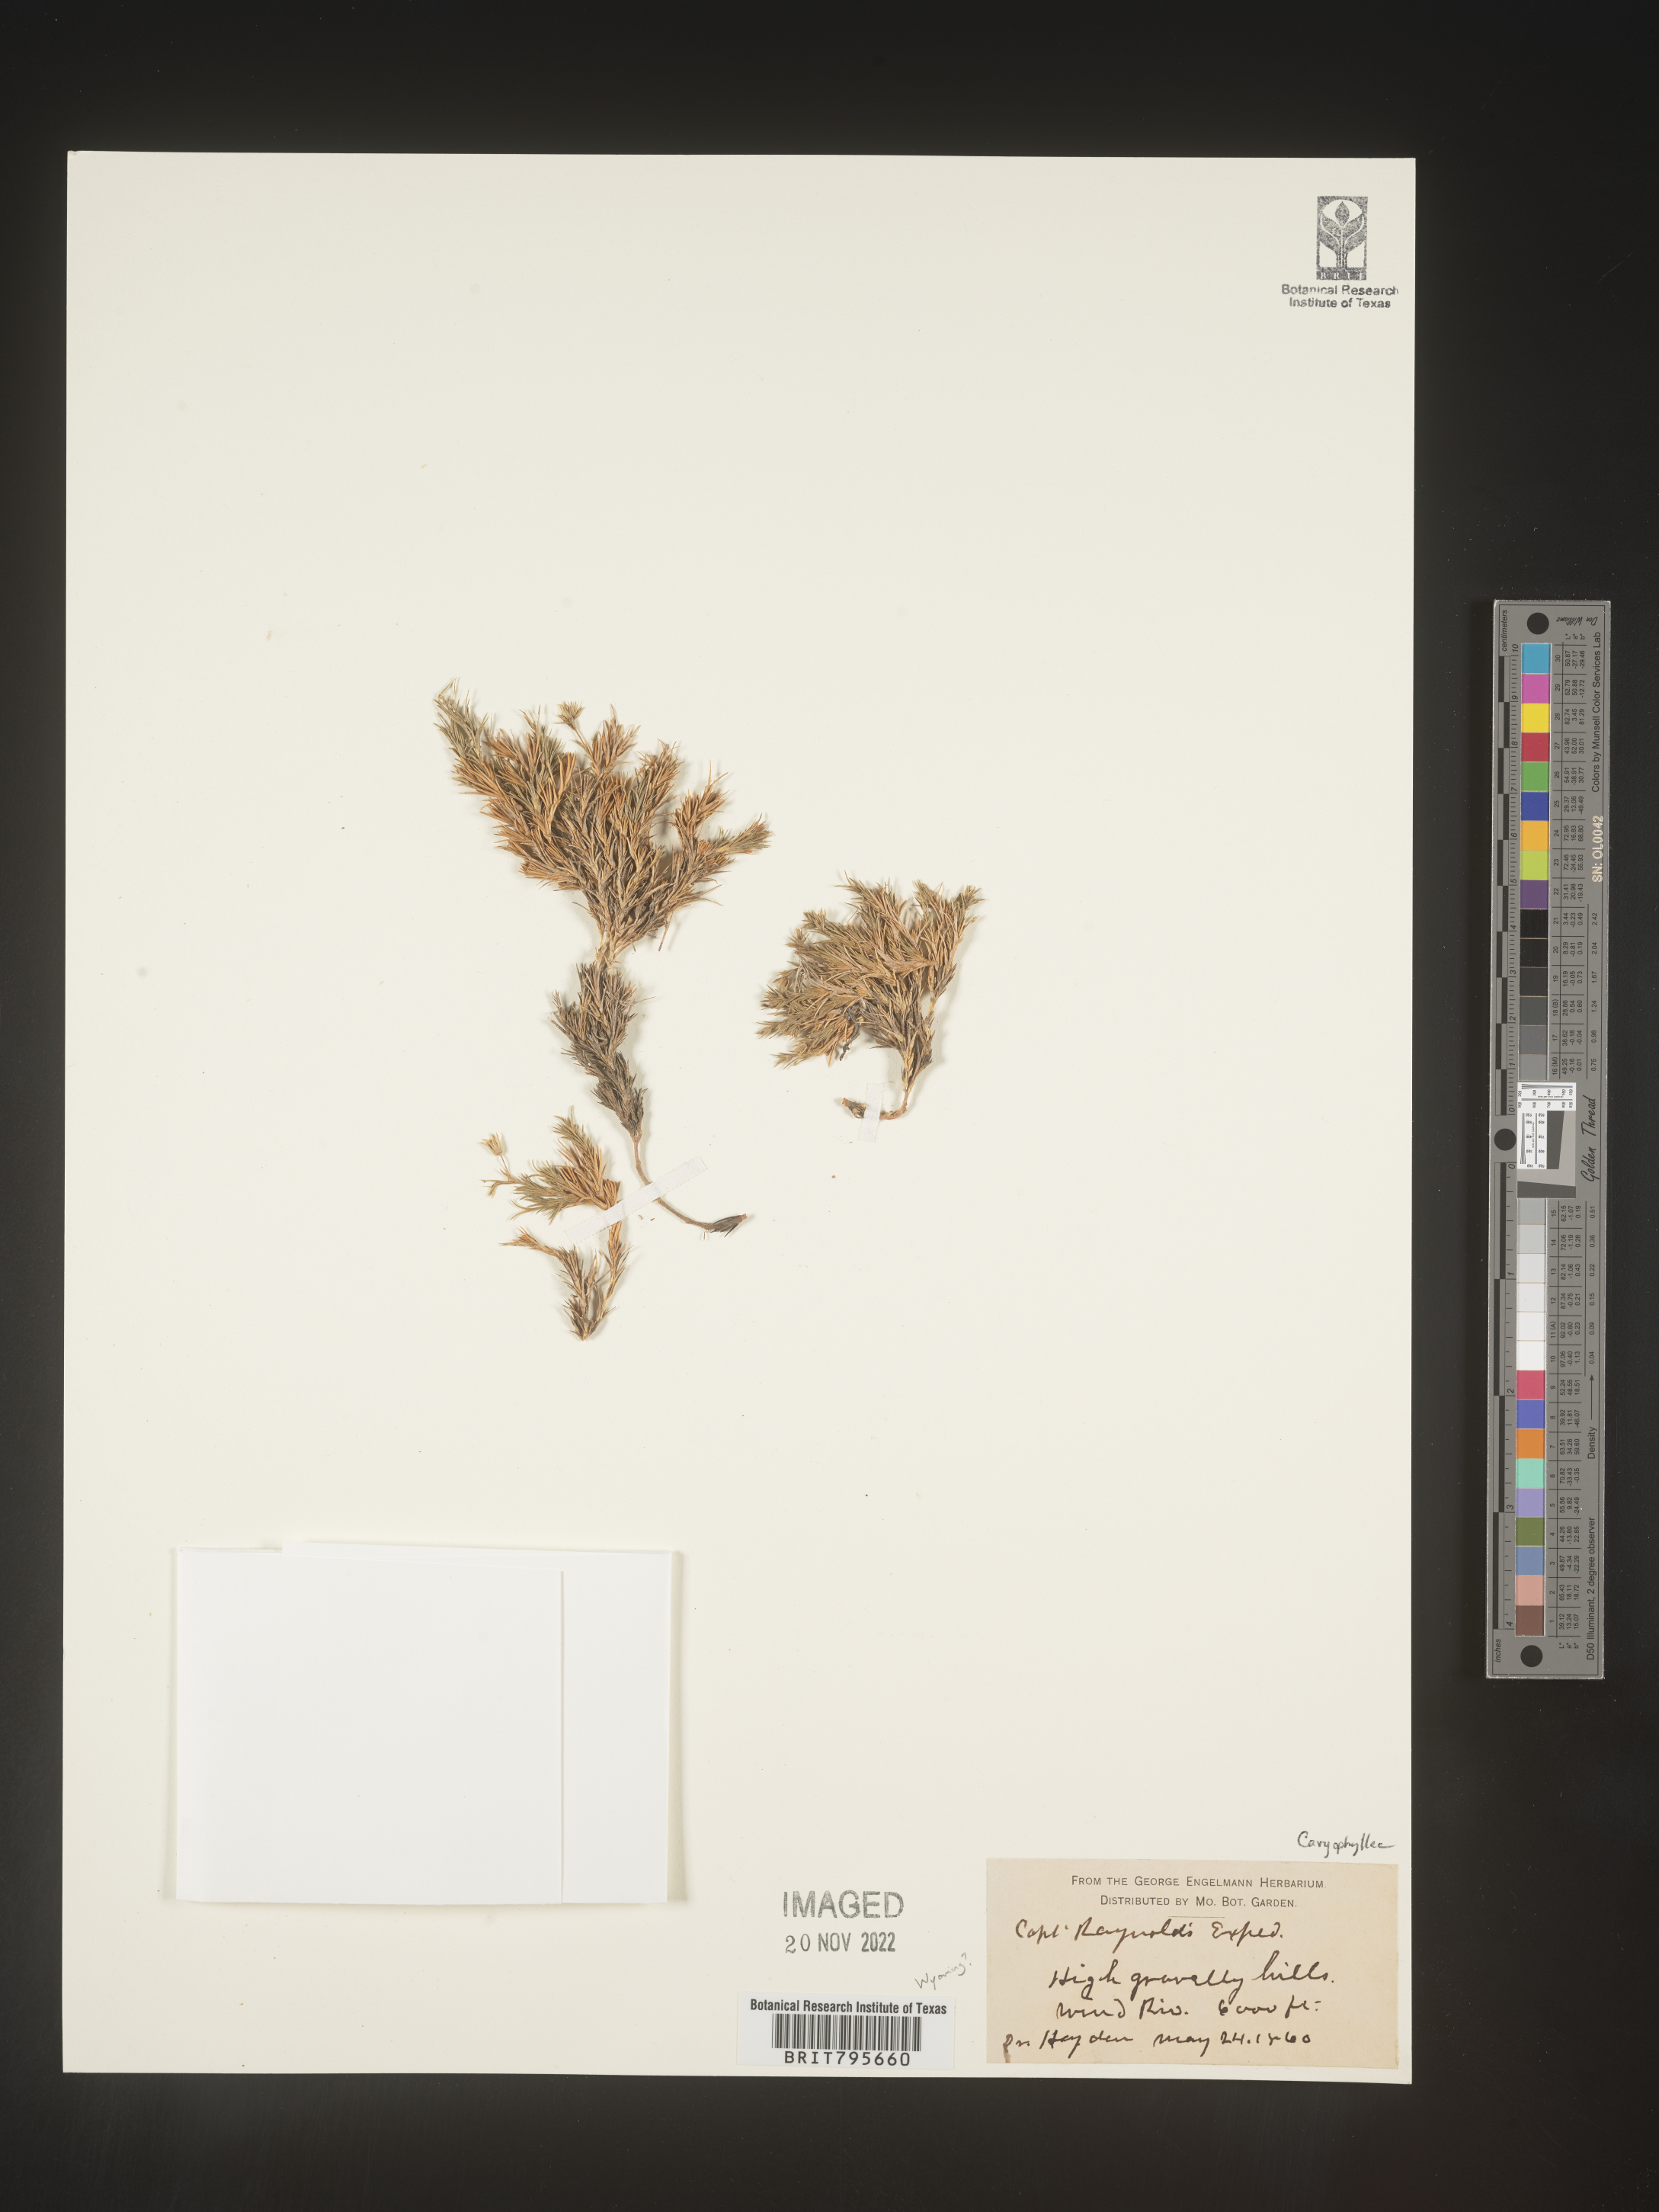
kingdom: Plantae
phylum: Tracheophyta
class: Magnoliopsida
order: Caryophyllales
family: Caryophyllaceae
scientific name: Caryophyllaceae
